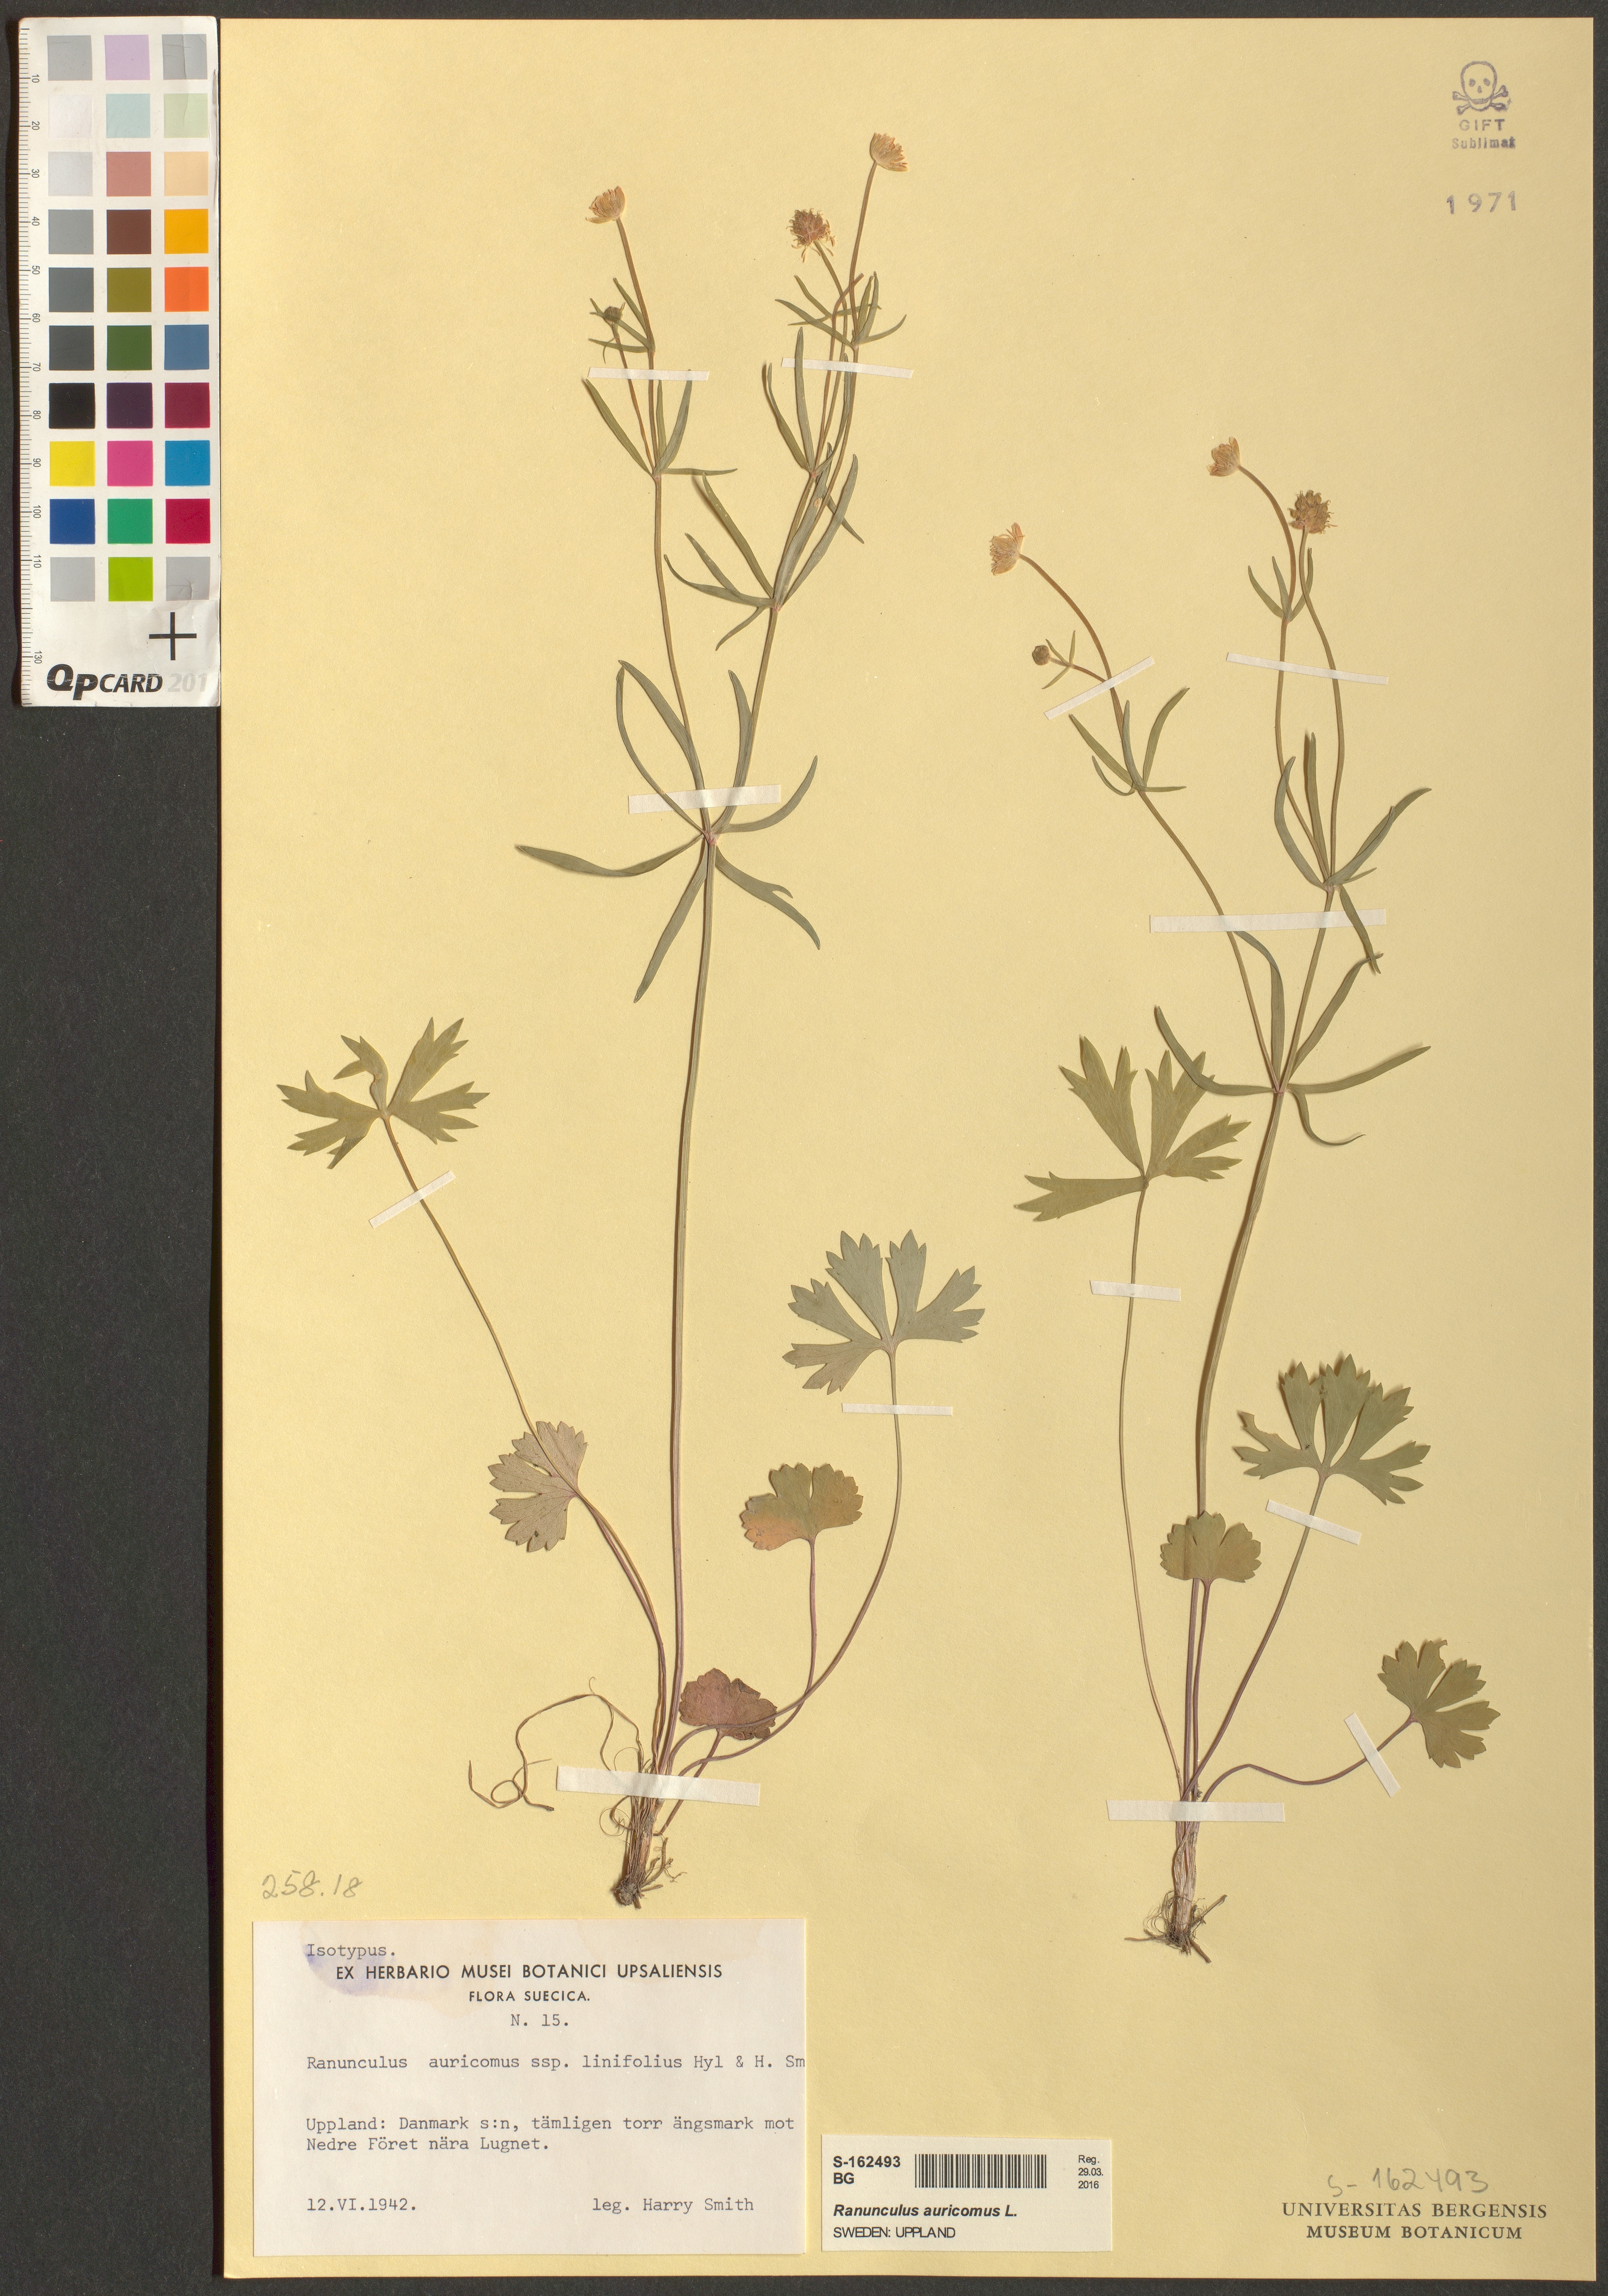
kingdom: Plantae
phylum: Tracheophyta
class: Magnoliopsida
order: Ranunculales
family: Ranunculaceae
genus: Ranunculus
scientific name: Ranunculus auricomus
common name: Goldilocks buttercup
